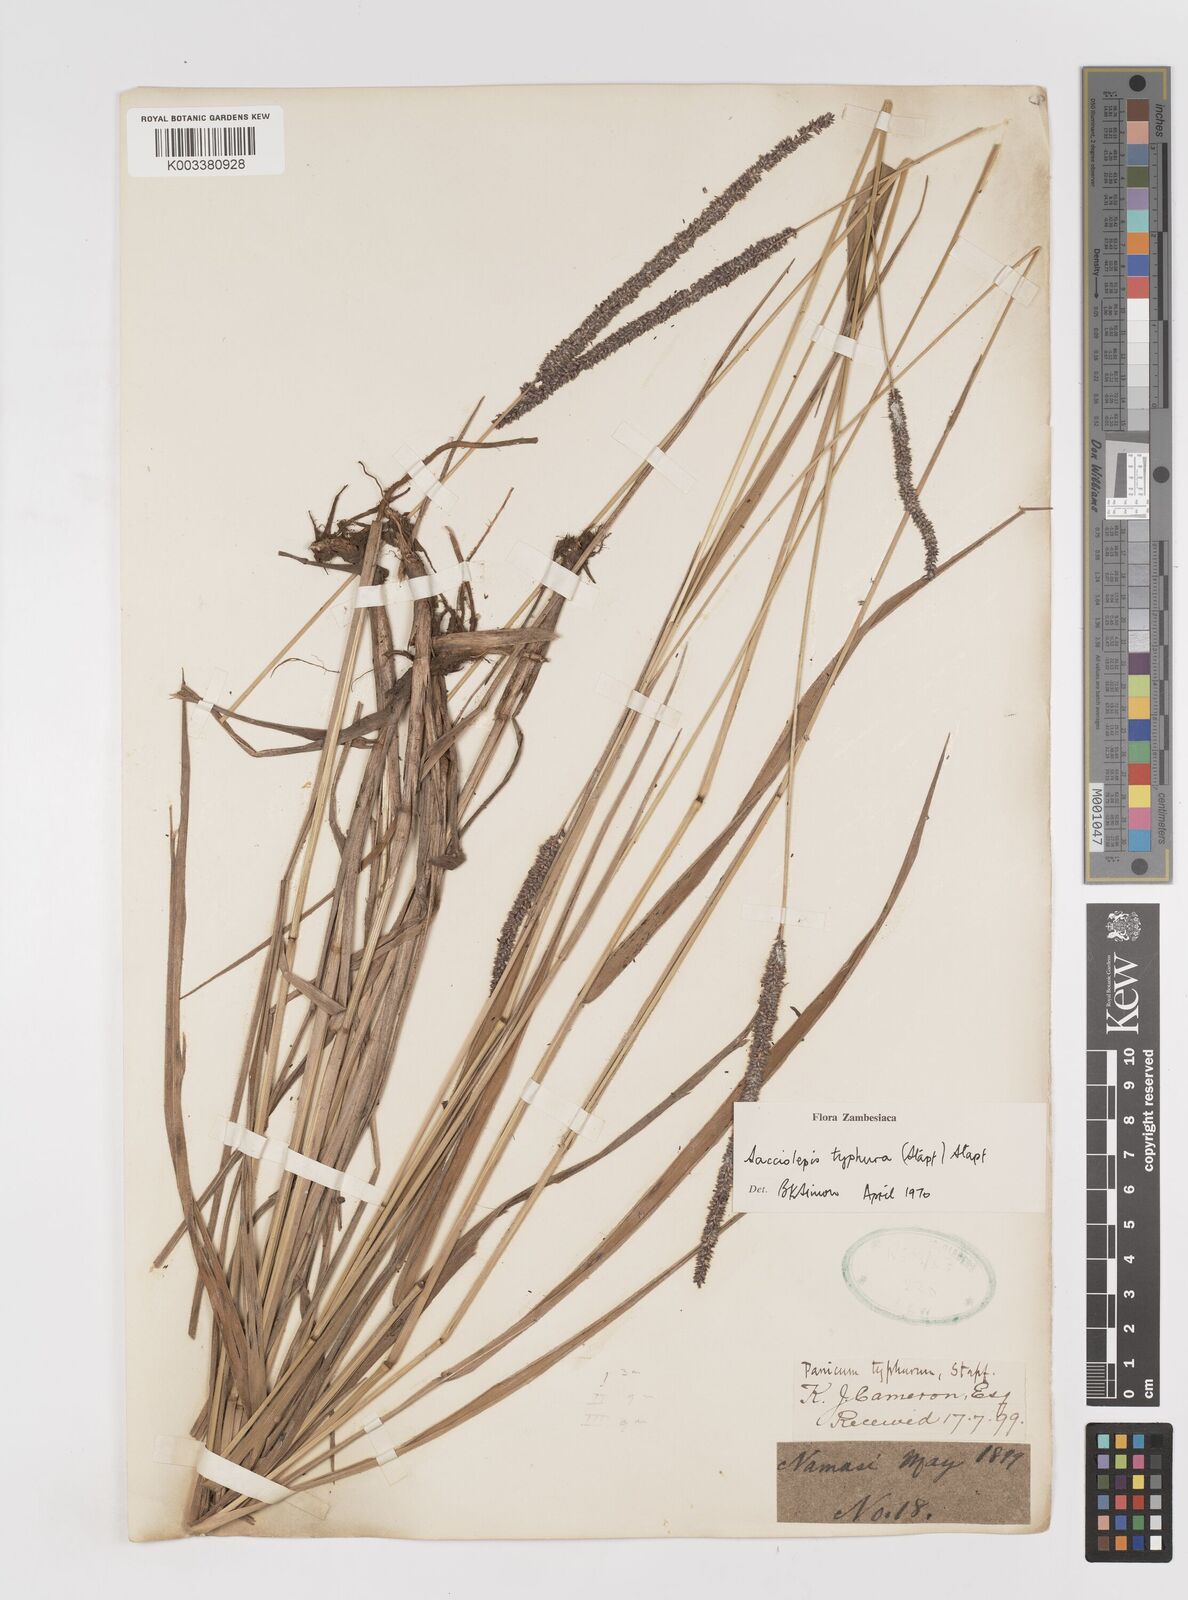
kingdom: Plantae
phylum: Tracheophyta
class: Liliopsida
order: Poales
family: Poaceae
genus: Sacciolepis
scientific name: Sacciolepis typhura
